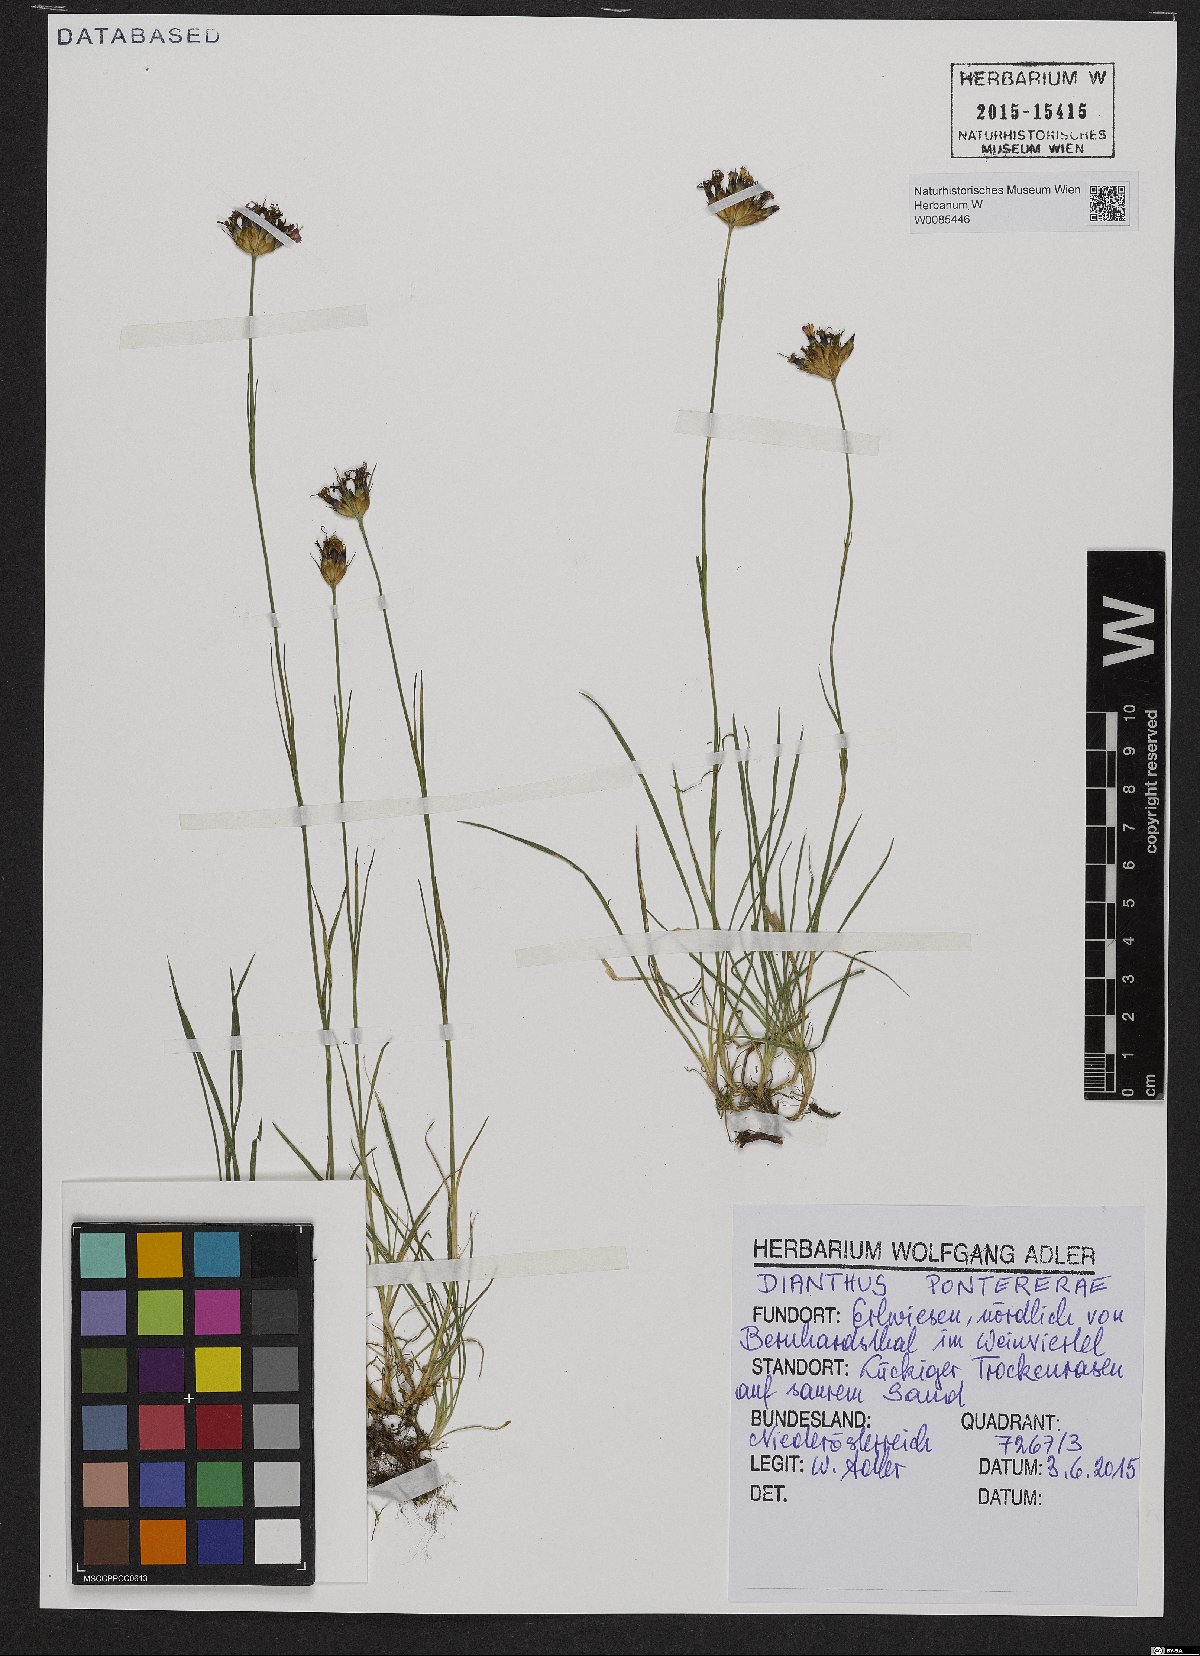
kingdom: Plantae
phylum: Tracheophyta
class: Magnoliopsida
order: Caryophyllales
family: Caryophyllaceae
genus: Dianthus
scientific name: Dianthus pontederae
